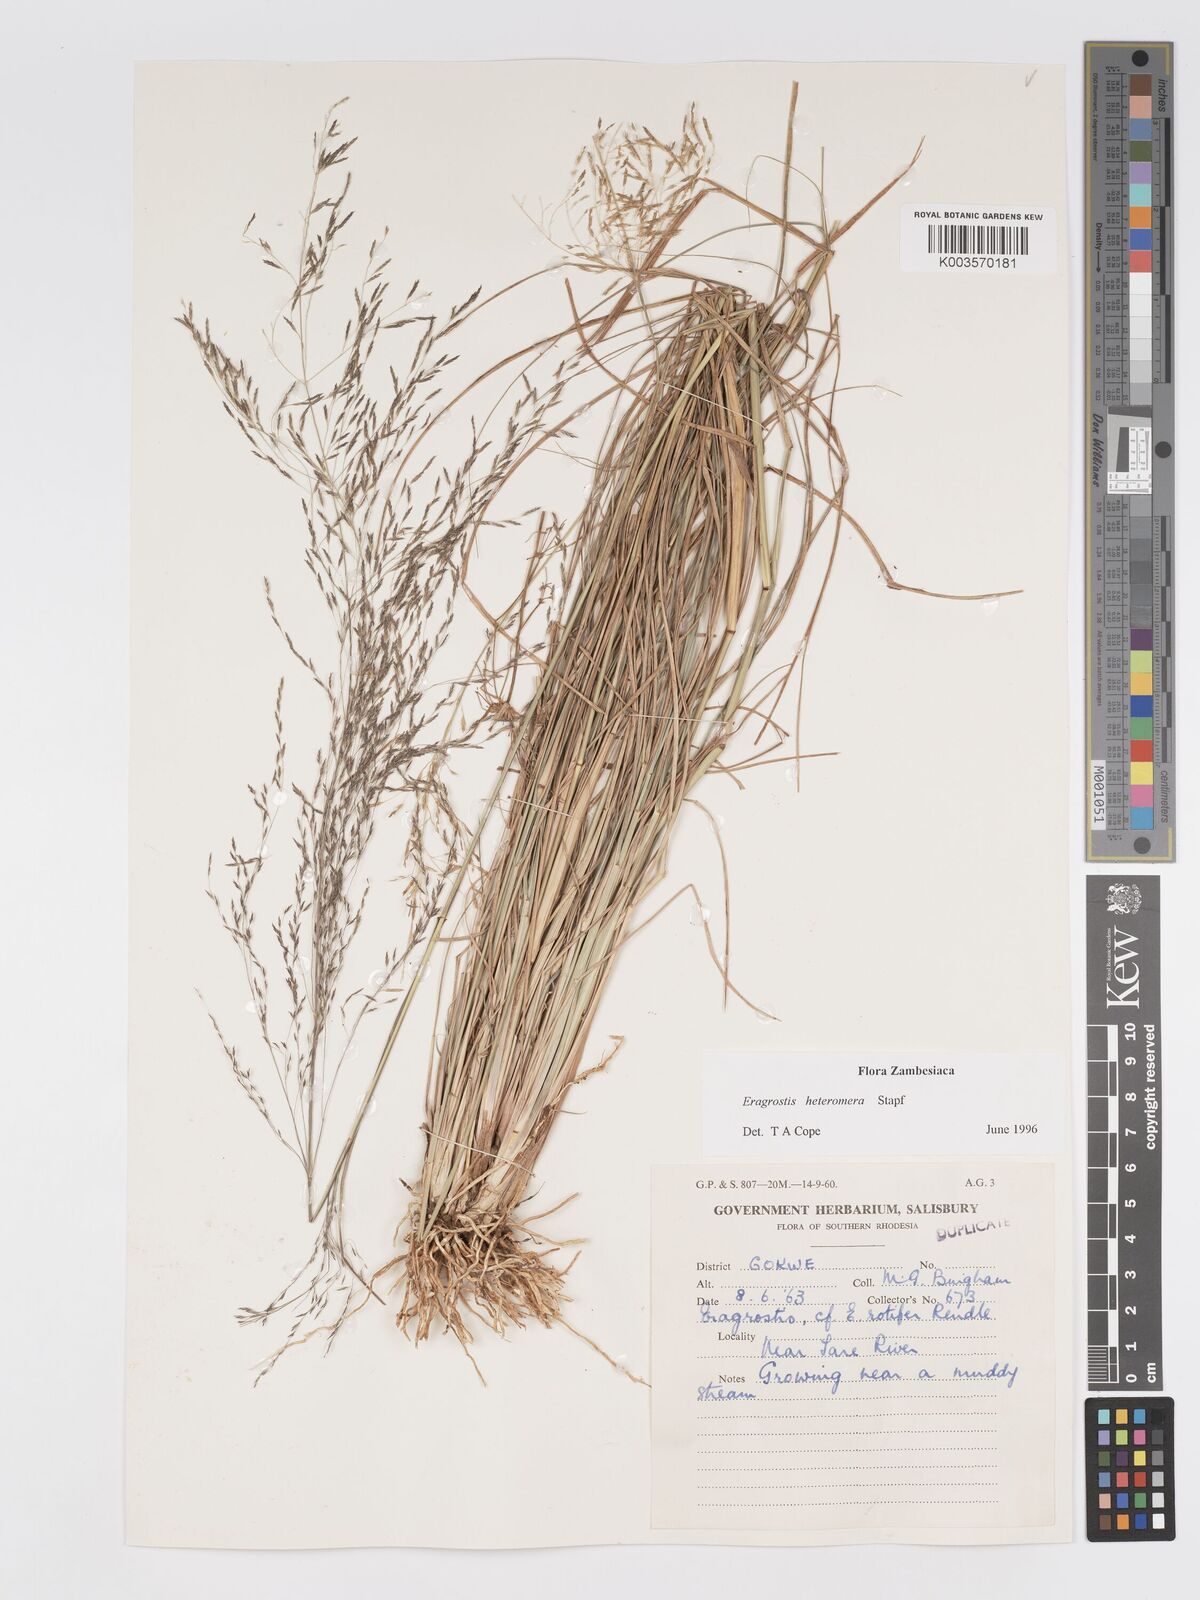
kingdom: Plantae
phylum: Tracheophyta
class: Liliopsida
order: Poales
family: Poaceae
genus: Eragrostis
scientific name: Eragrostis heteromera
